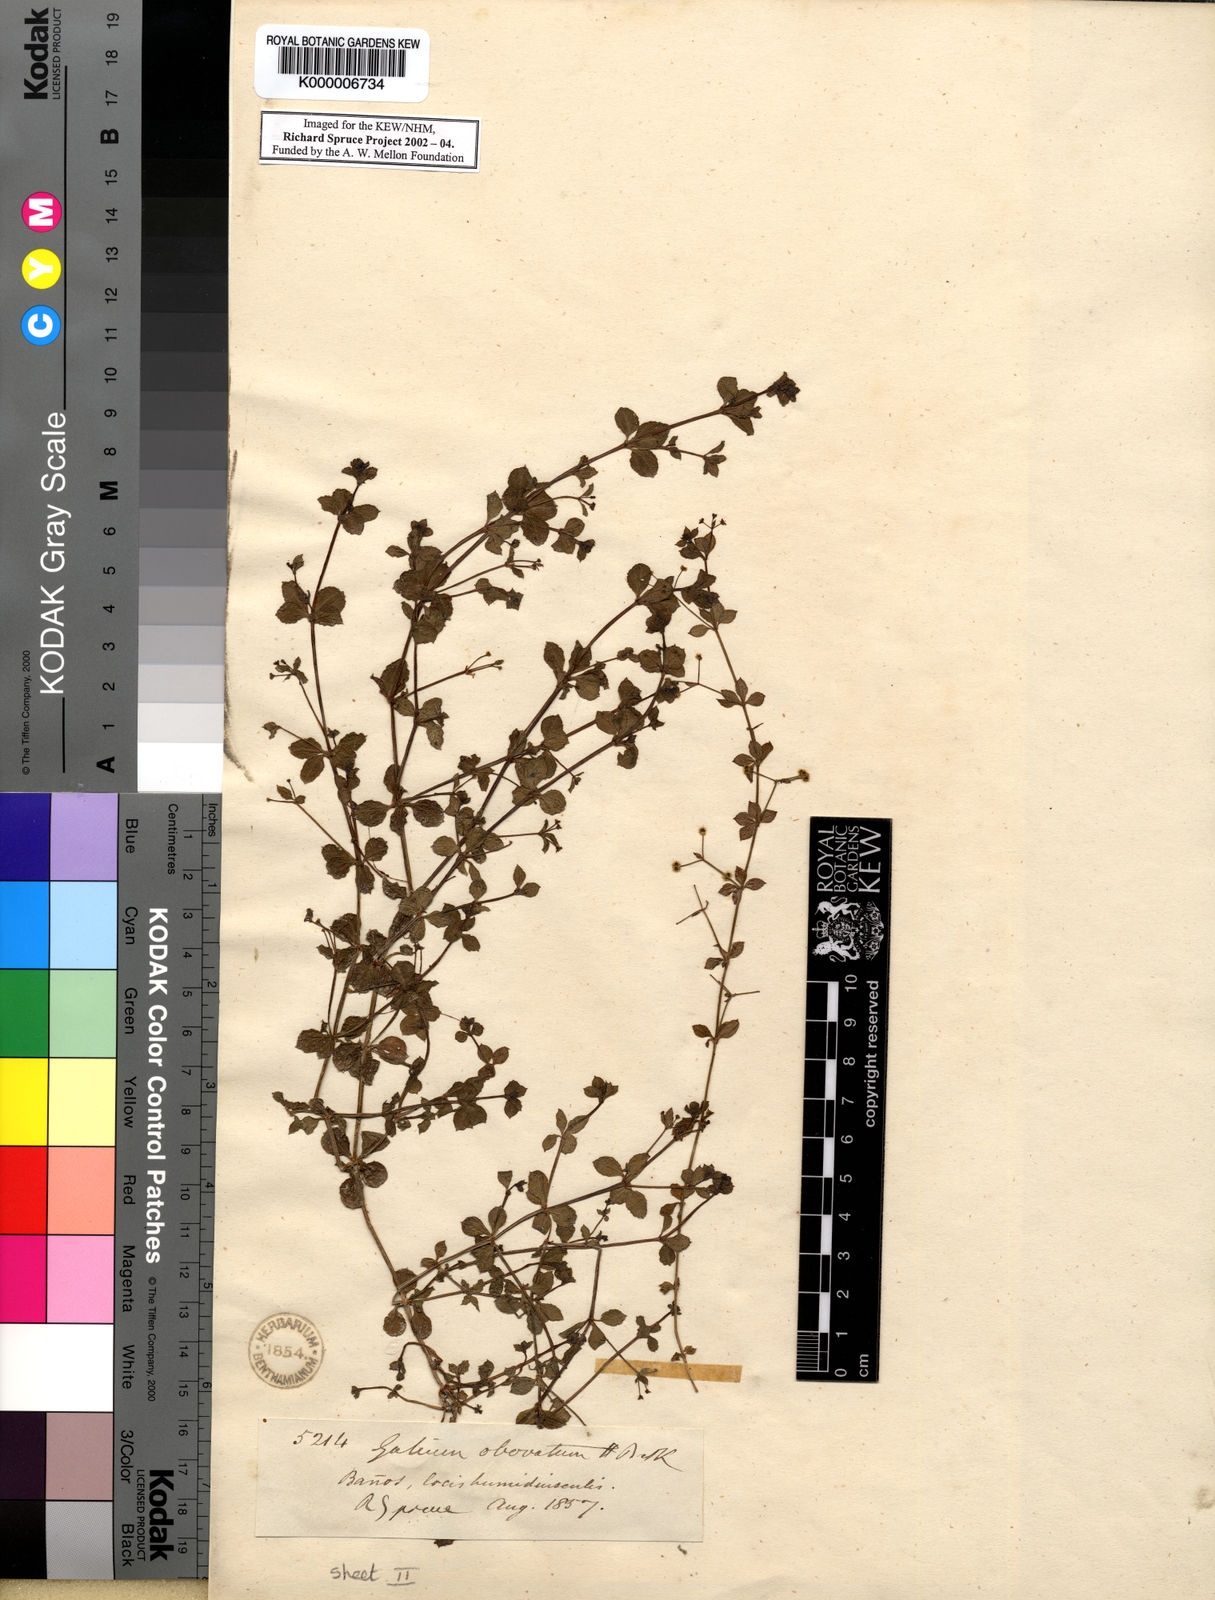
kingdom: Plantae
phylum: Tracheophyta
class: Magnoliopsida
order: Gentianales
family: Rubiaceae
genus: Galium
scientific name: Galium obovatum
